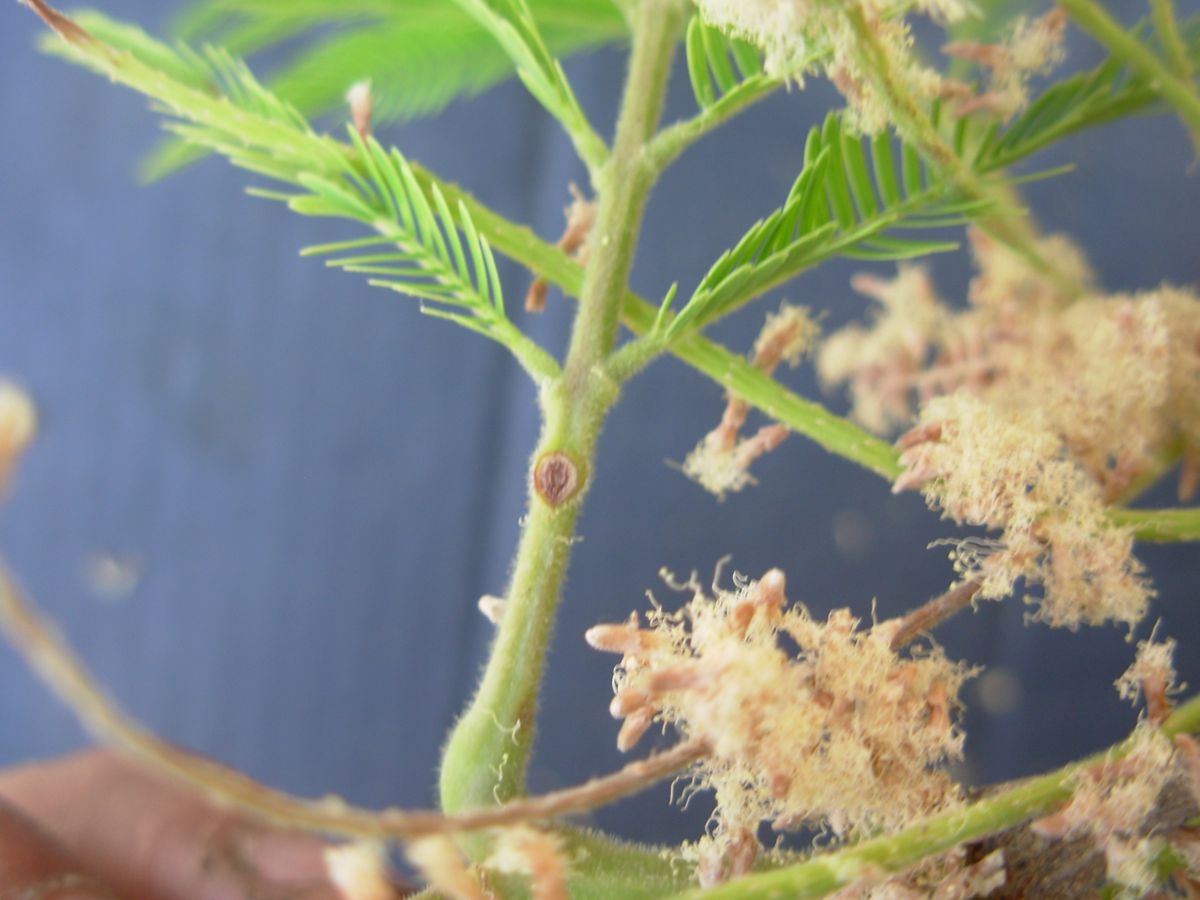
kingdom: Plantae
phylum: Tracheophyta
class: Magnoliopsida
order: Fabales
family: Fabaceae
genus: Lysiloma
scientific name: Lysiloma acapulcense
